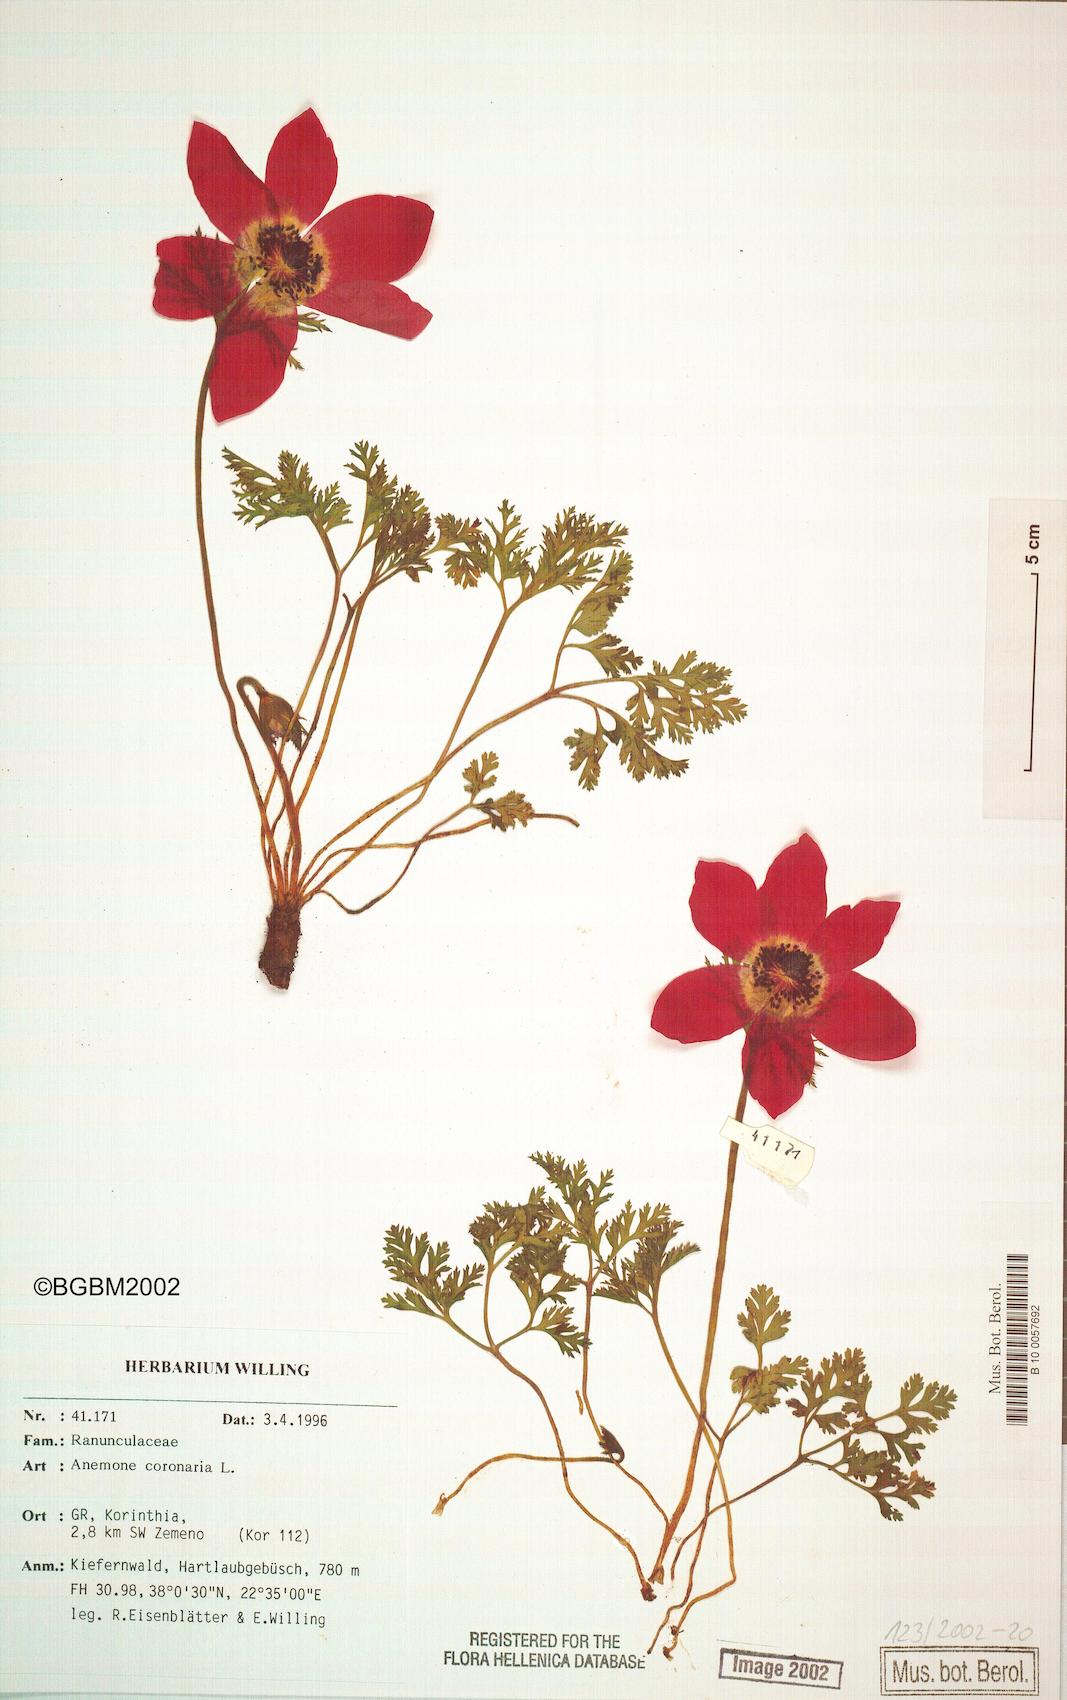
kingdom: Plantae
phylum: Tracheophyta
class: Magnoliopsida
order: Ranunculales
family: Ranunculaceae
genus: Anemone
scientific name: Anemone coronaria
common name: Poppy anemone
